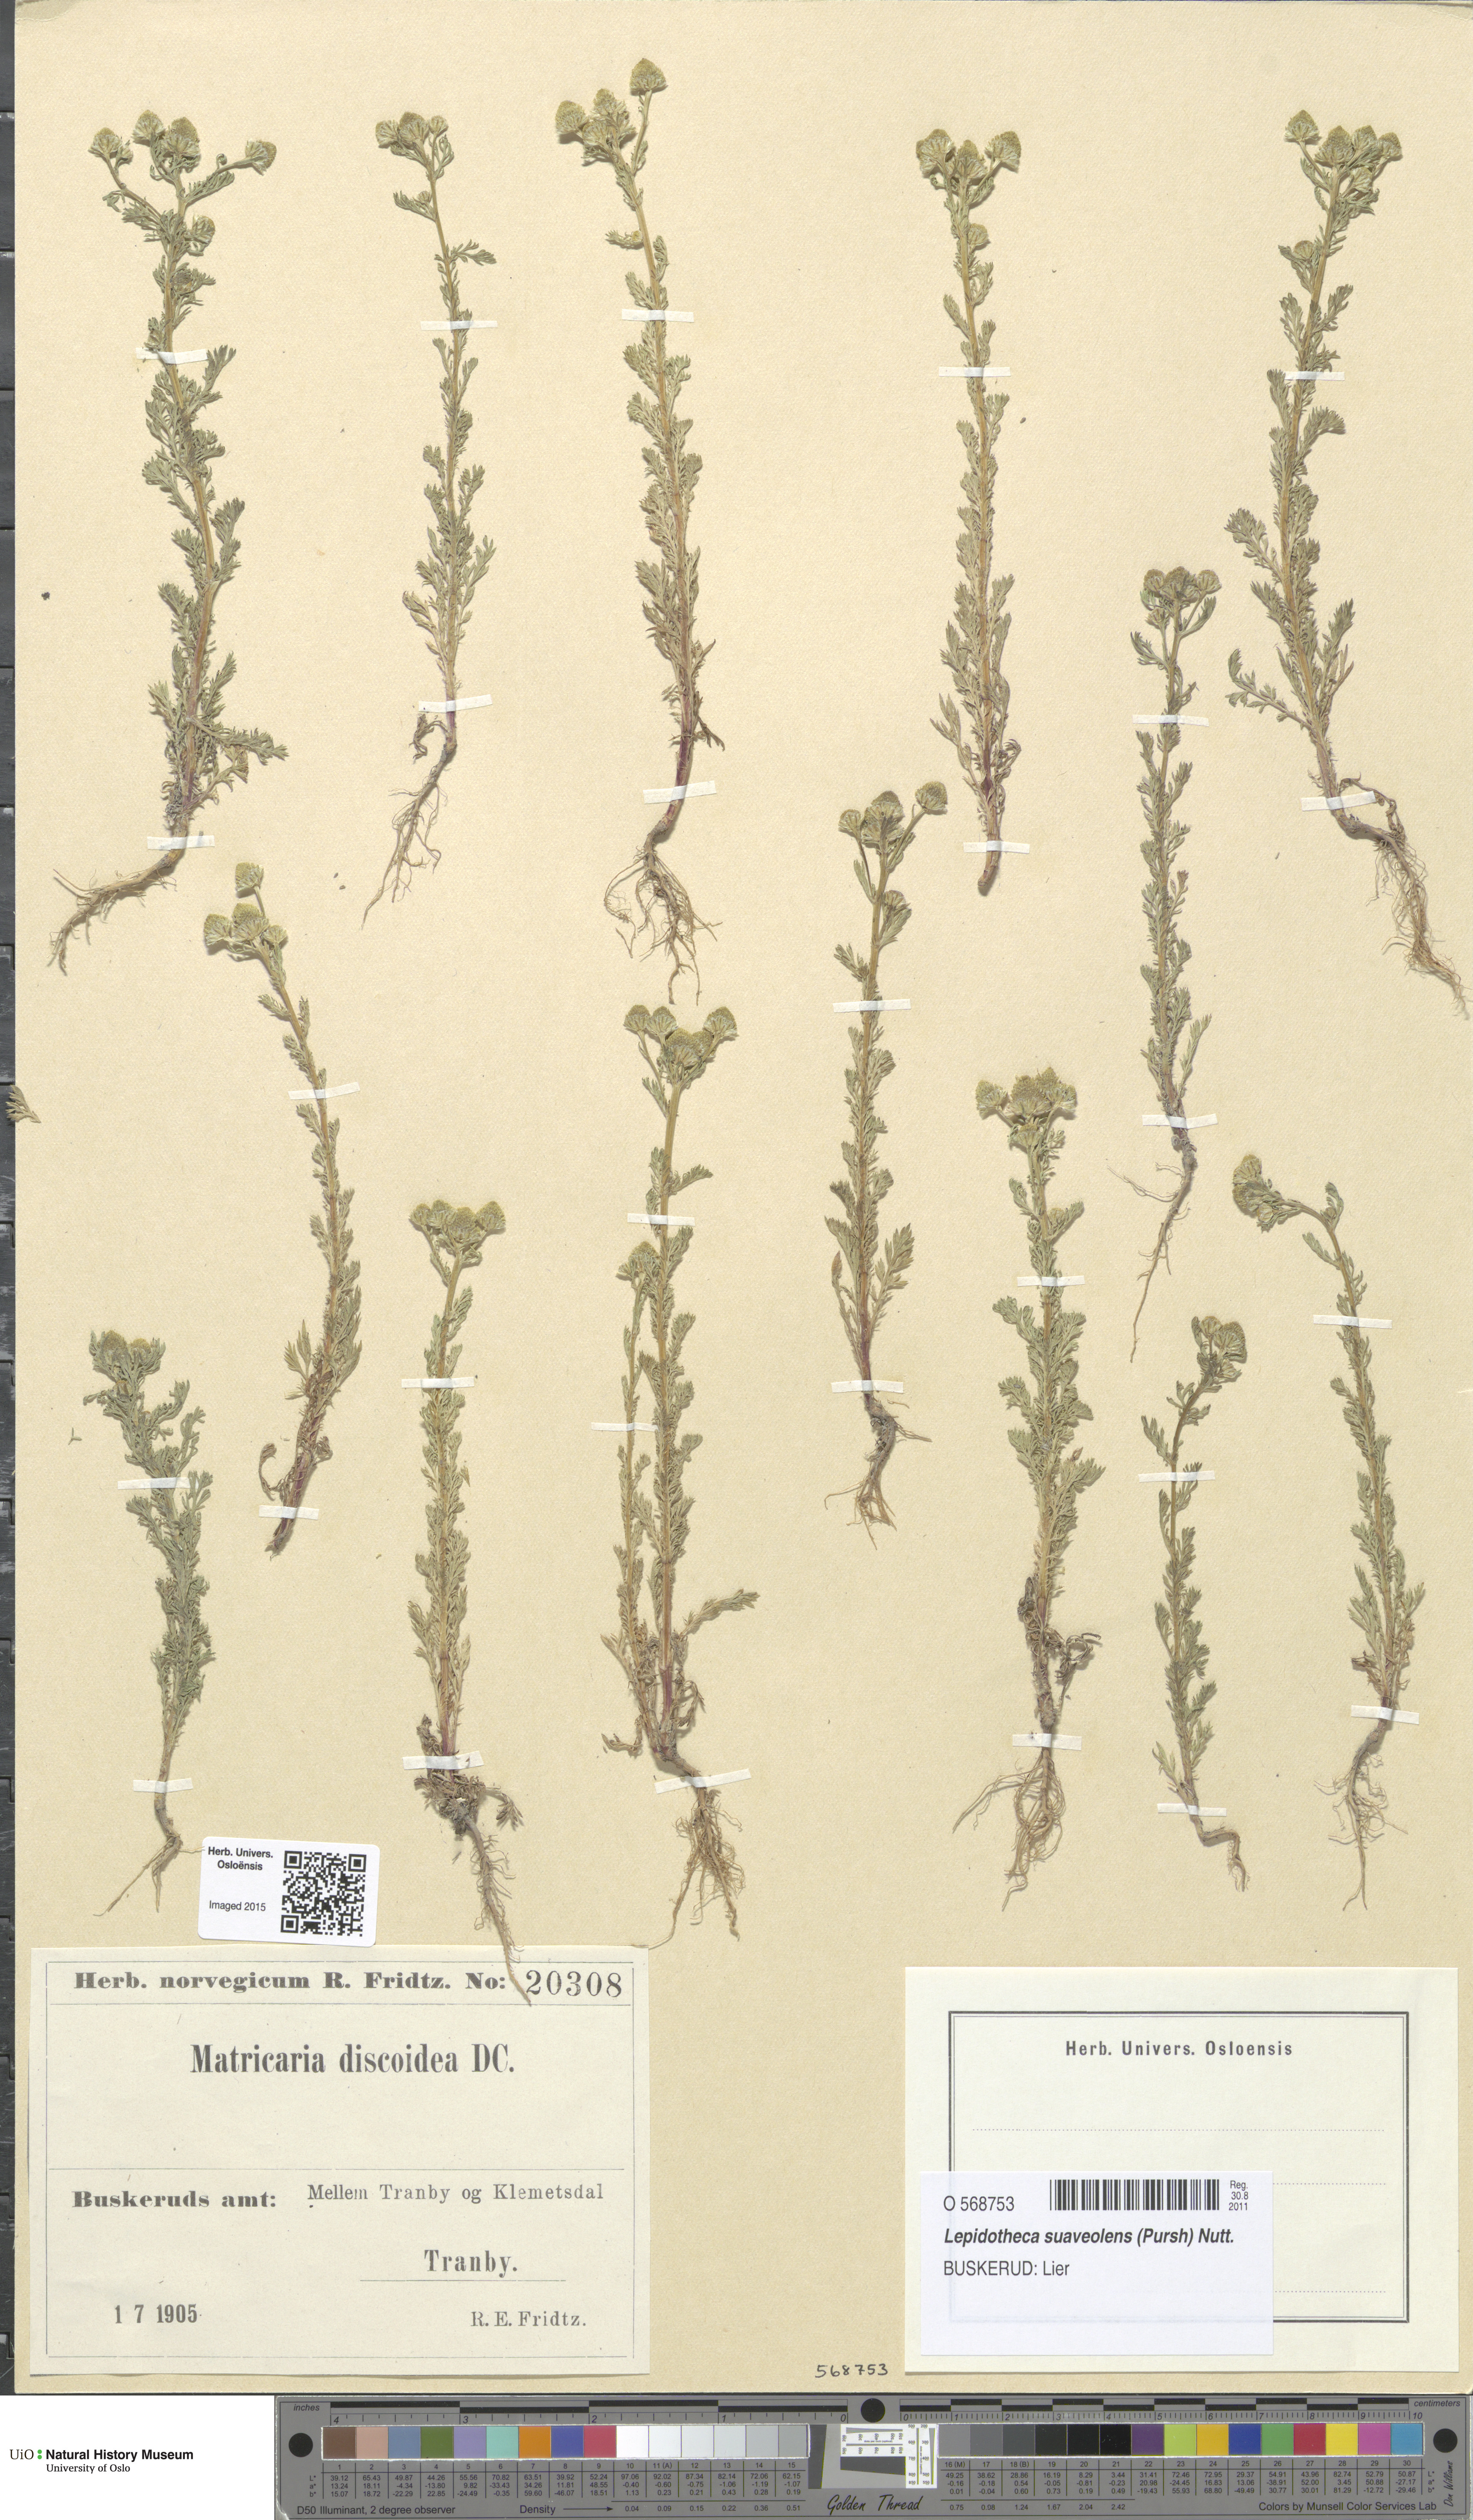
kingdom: Plantae
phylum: Tracheophyta
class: Magnoliopsida
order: Asterales
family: Asteraceae
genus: Matricaria
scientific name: Matricaria discoidea
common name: Disc mayweed
